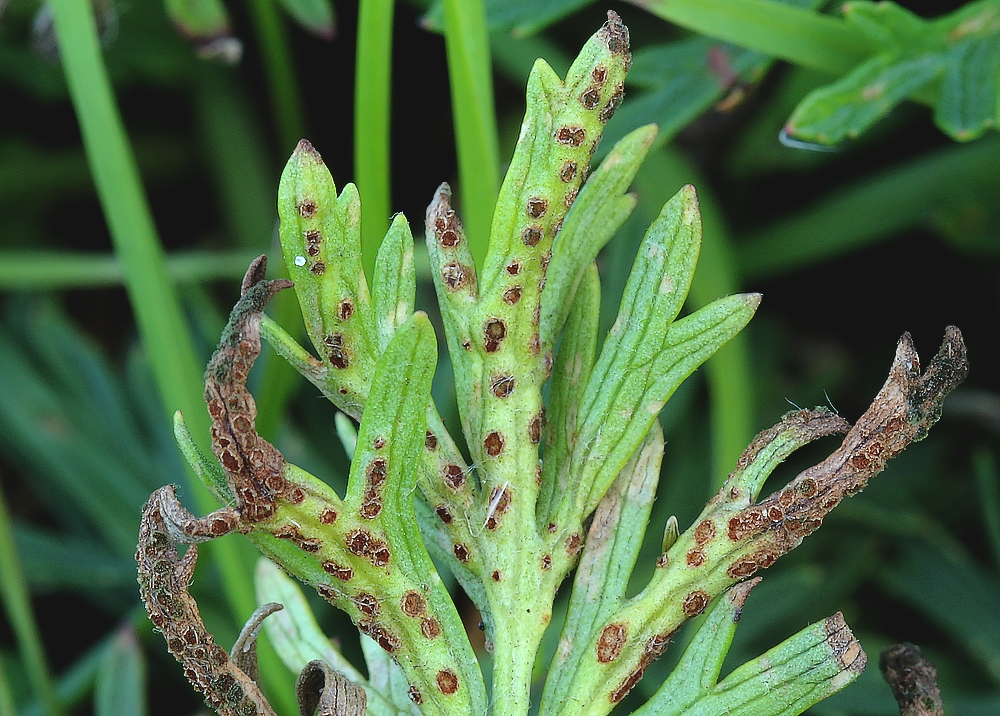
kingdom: Fungi
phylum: Basidiomycota
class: Pucciniomycetes
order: Pucciniales
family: Tranzscheliaceae
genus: Tranzschelia
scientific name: Tranzschelia pulsatillae
